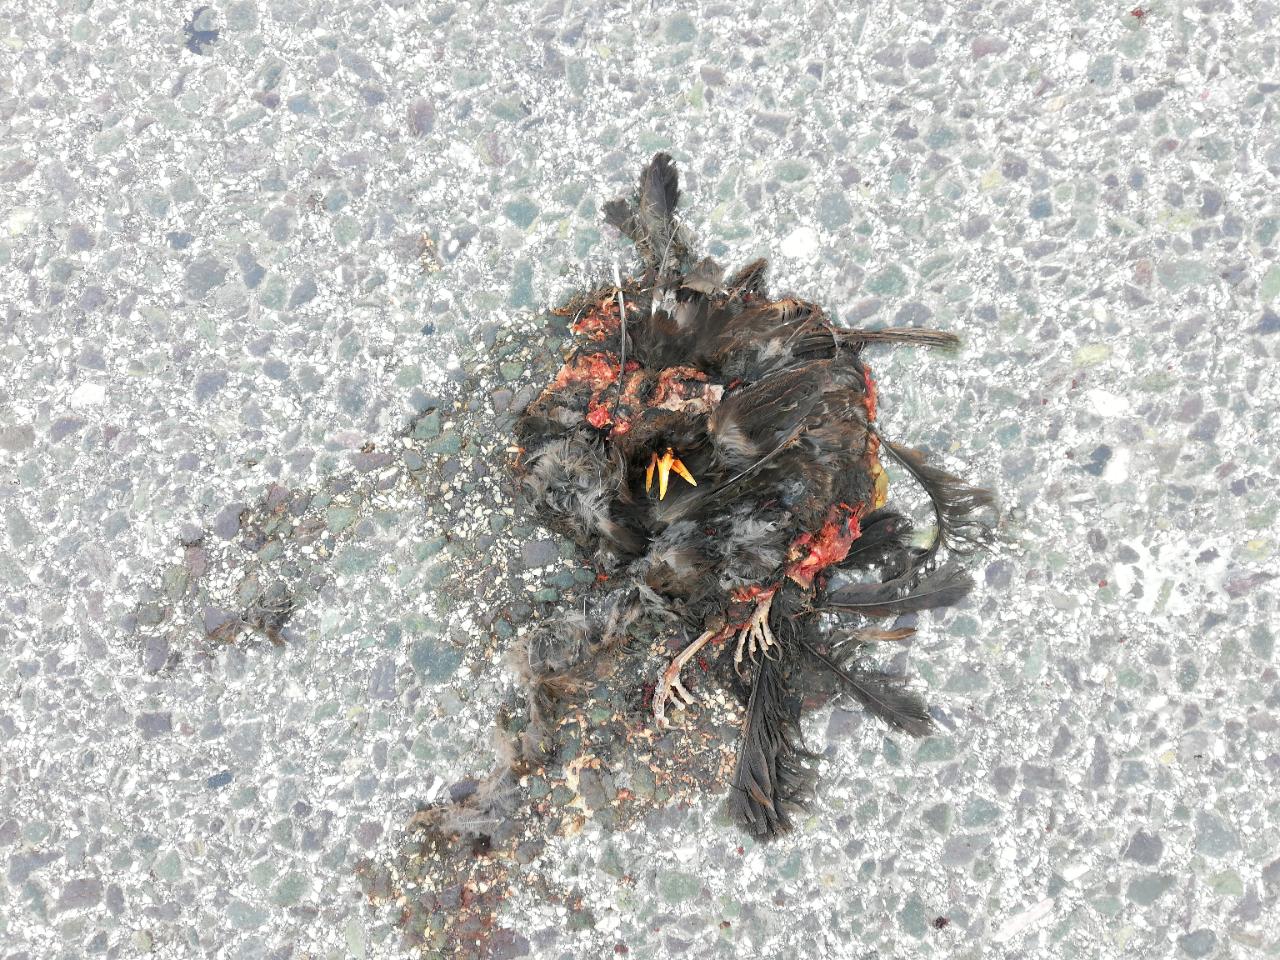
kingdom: Animalia
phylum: Chordata
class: Aves
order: Passeriformes
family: Turdidae
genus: Turdus
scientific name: Turdus merula
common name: Common blackbird
